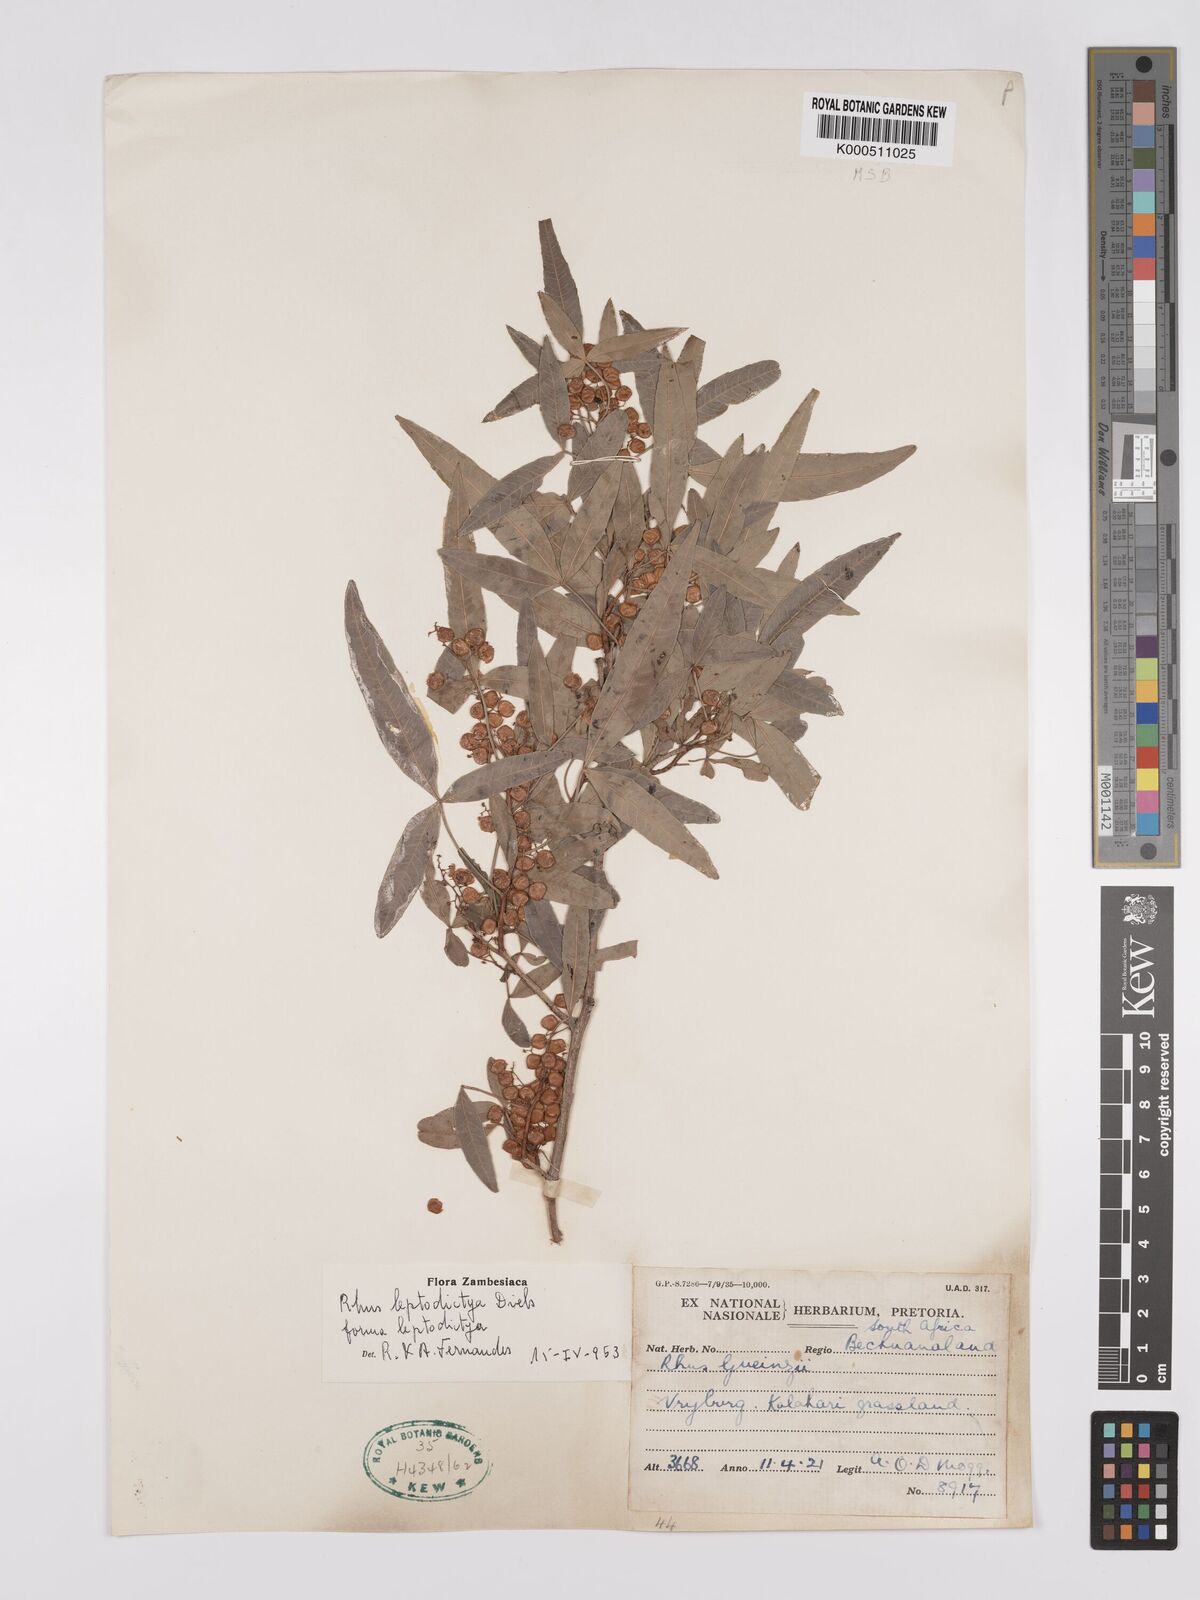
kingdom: Plantae
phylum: Tracheophyta
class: Magnoliopsida
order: Sapindales
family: Anacardiaceae
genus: Searsia
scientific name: Searsia leptodictya
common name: Mountain karee
